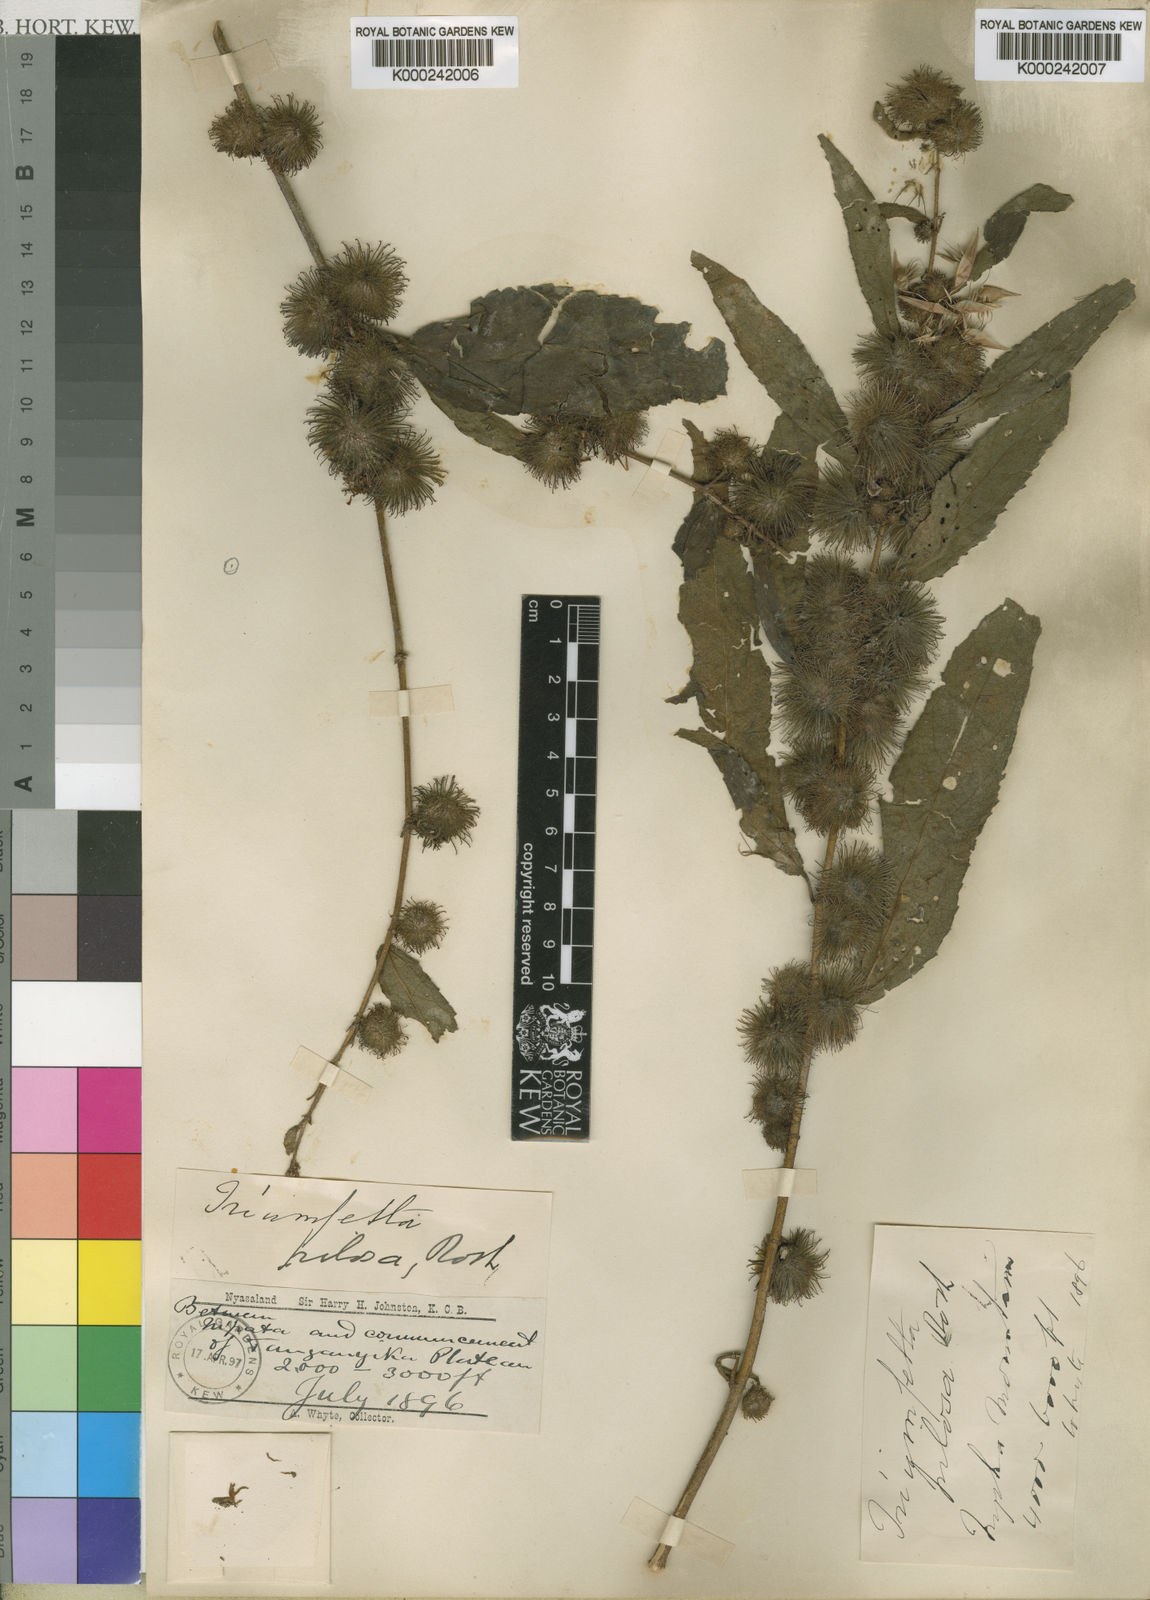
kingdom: Plantae
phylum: Tracheophyta
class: Magnoliopsida
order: Malvales
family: Malvaceae
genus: Triumfetta
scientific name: Triumfetta pilosa
